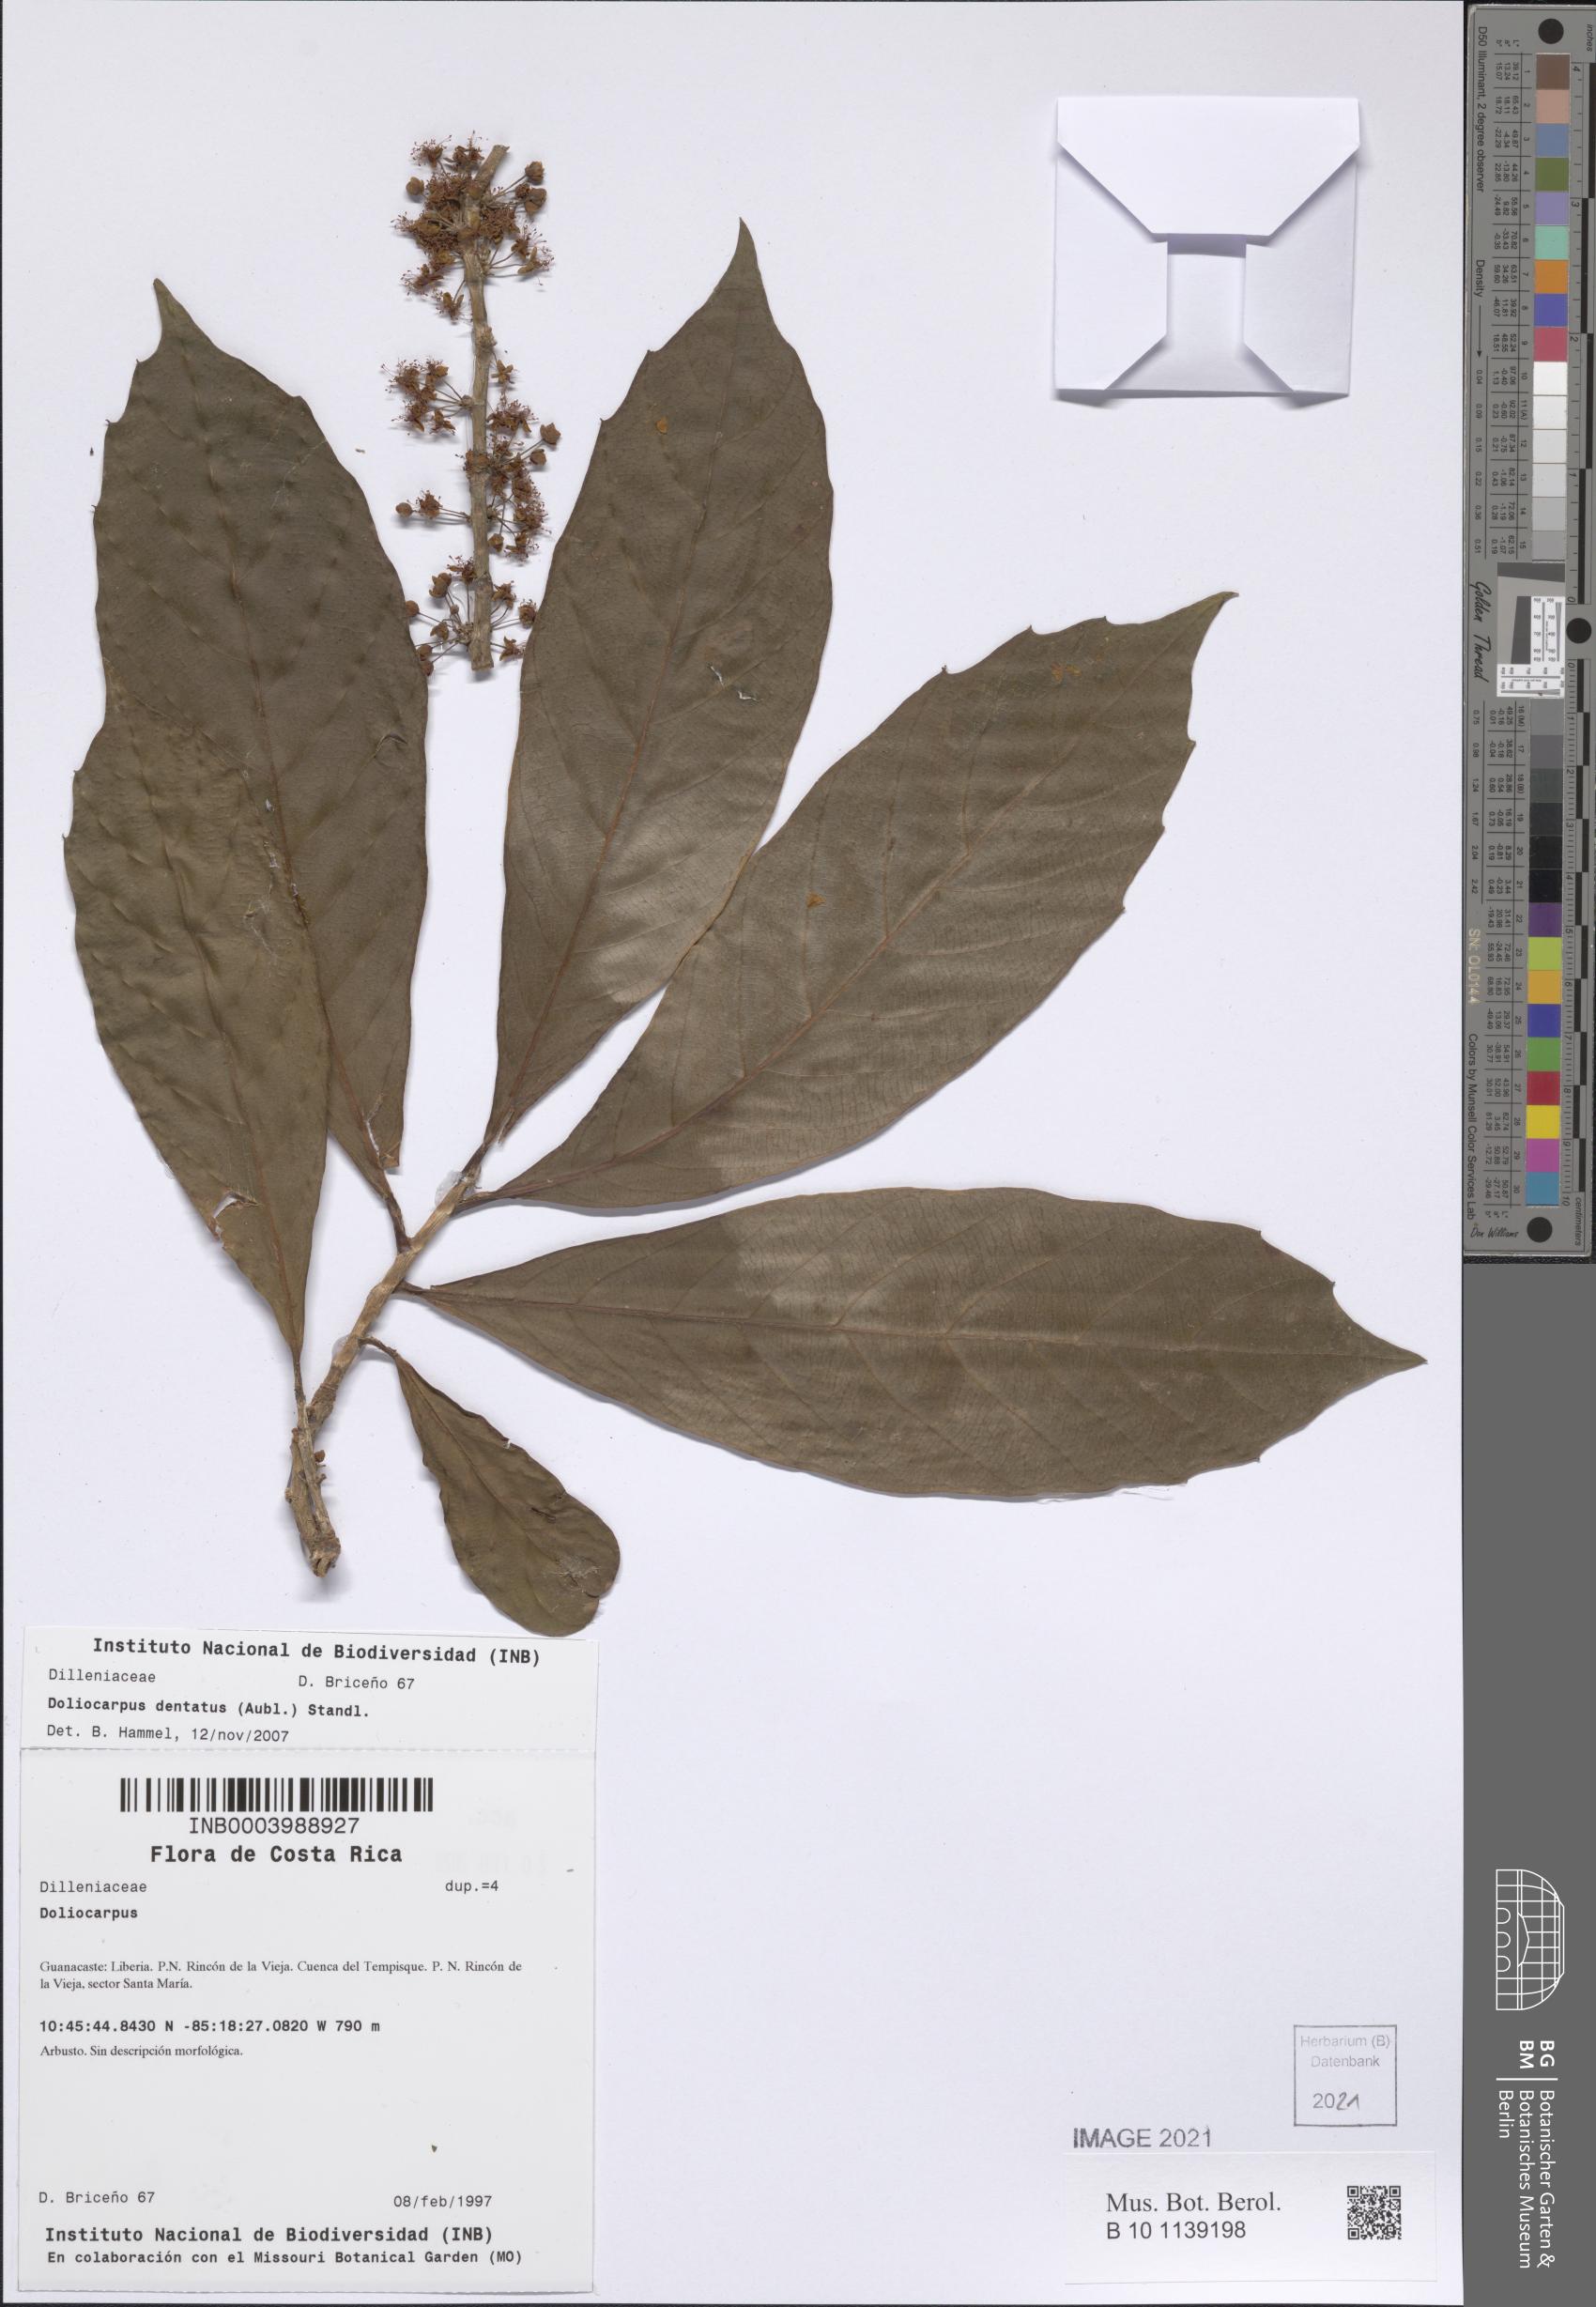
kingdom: Plantae
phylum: Tracheophyta
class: Magnoliopsida
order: Dilleniales
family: Dilleniaceae
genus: Doliocarpus
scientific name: Doliocarpus dentatus
